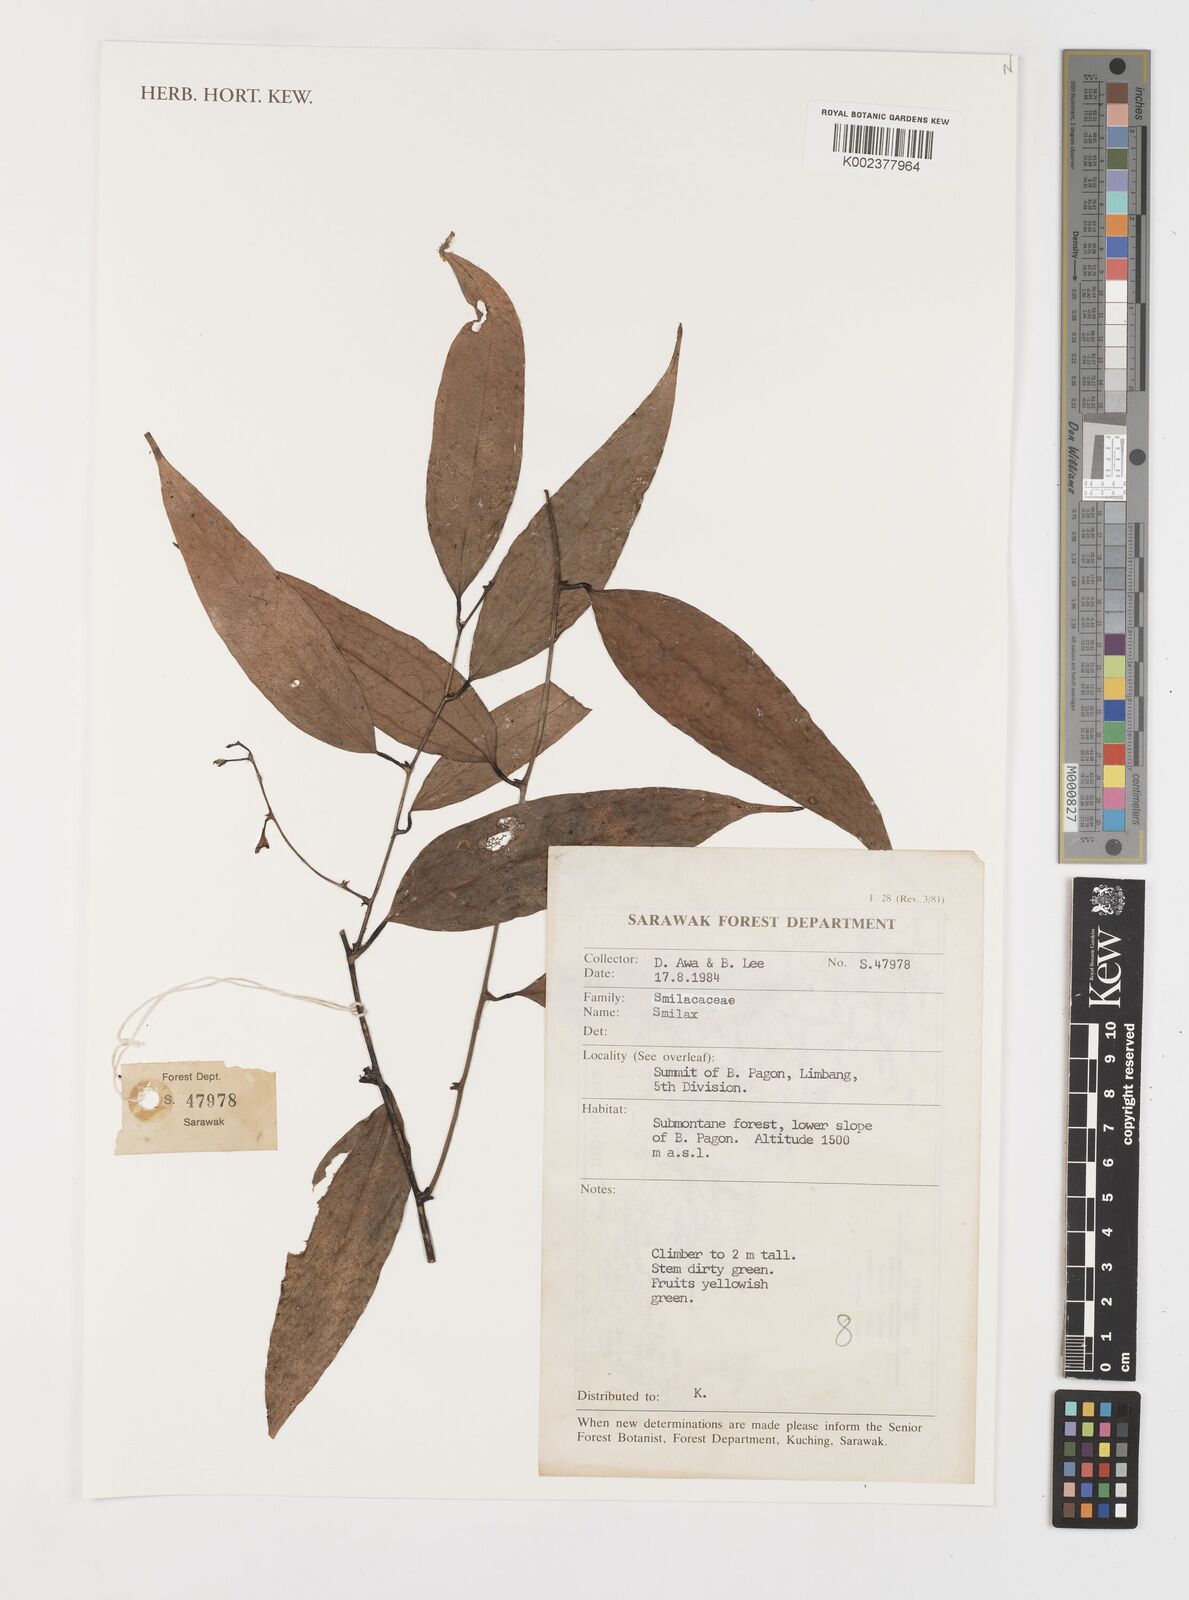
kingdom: Plantae
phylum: Tracheophyta
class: Liliopsida
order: Liliales
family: Smilacaceae
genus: Smilax
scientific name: Smilax
